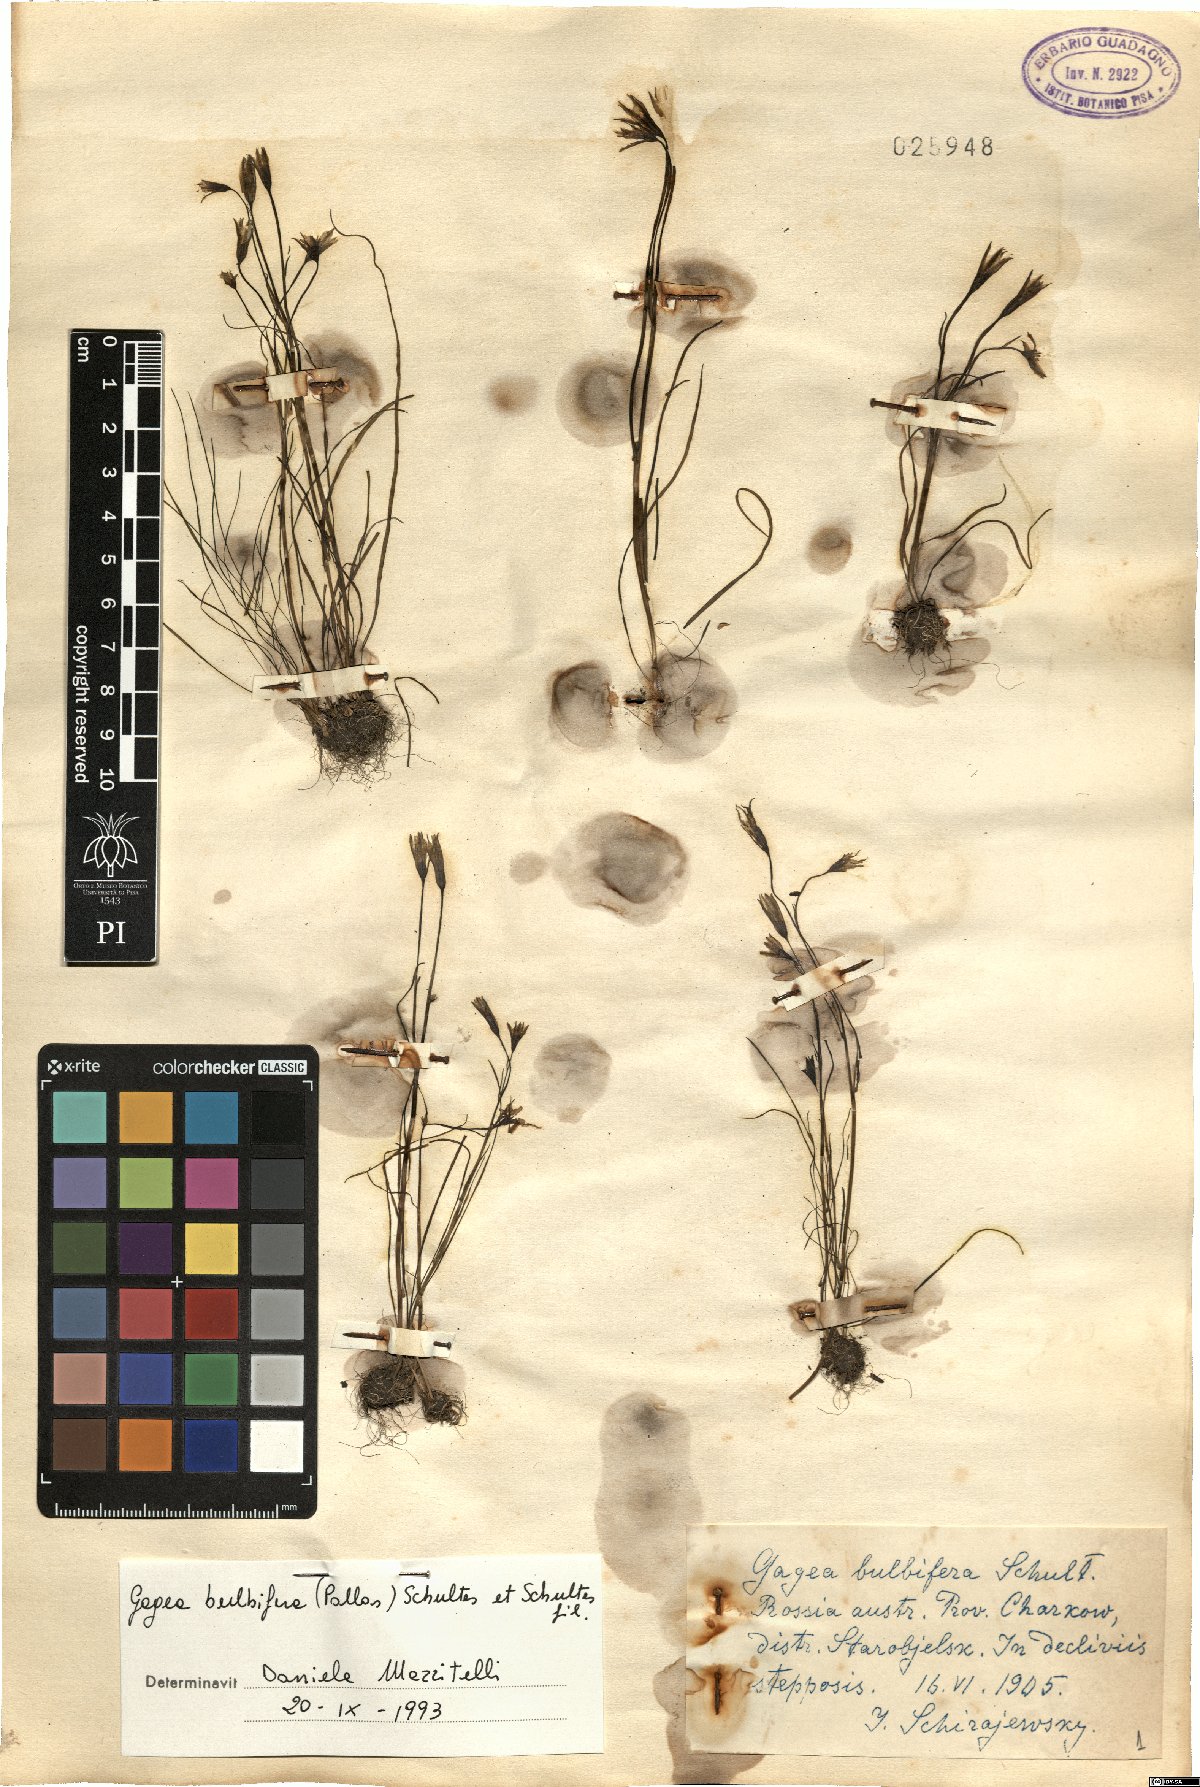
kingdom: Plantae
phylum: Tracheophyta
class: Liliopsida
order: Liliales
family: Liliaceae
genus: Gagea
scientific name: Gagea bulbifera
